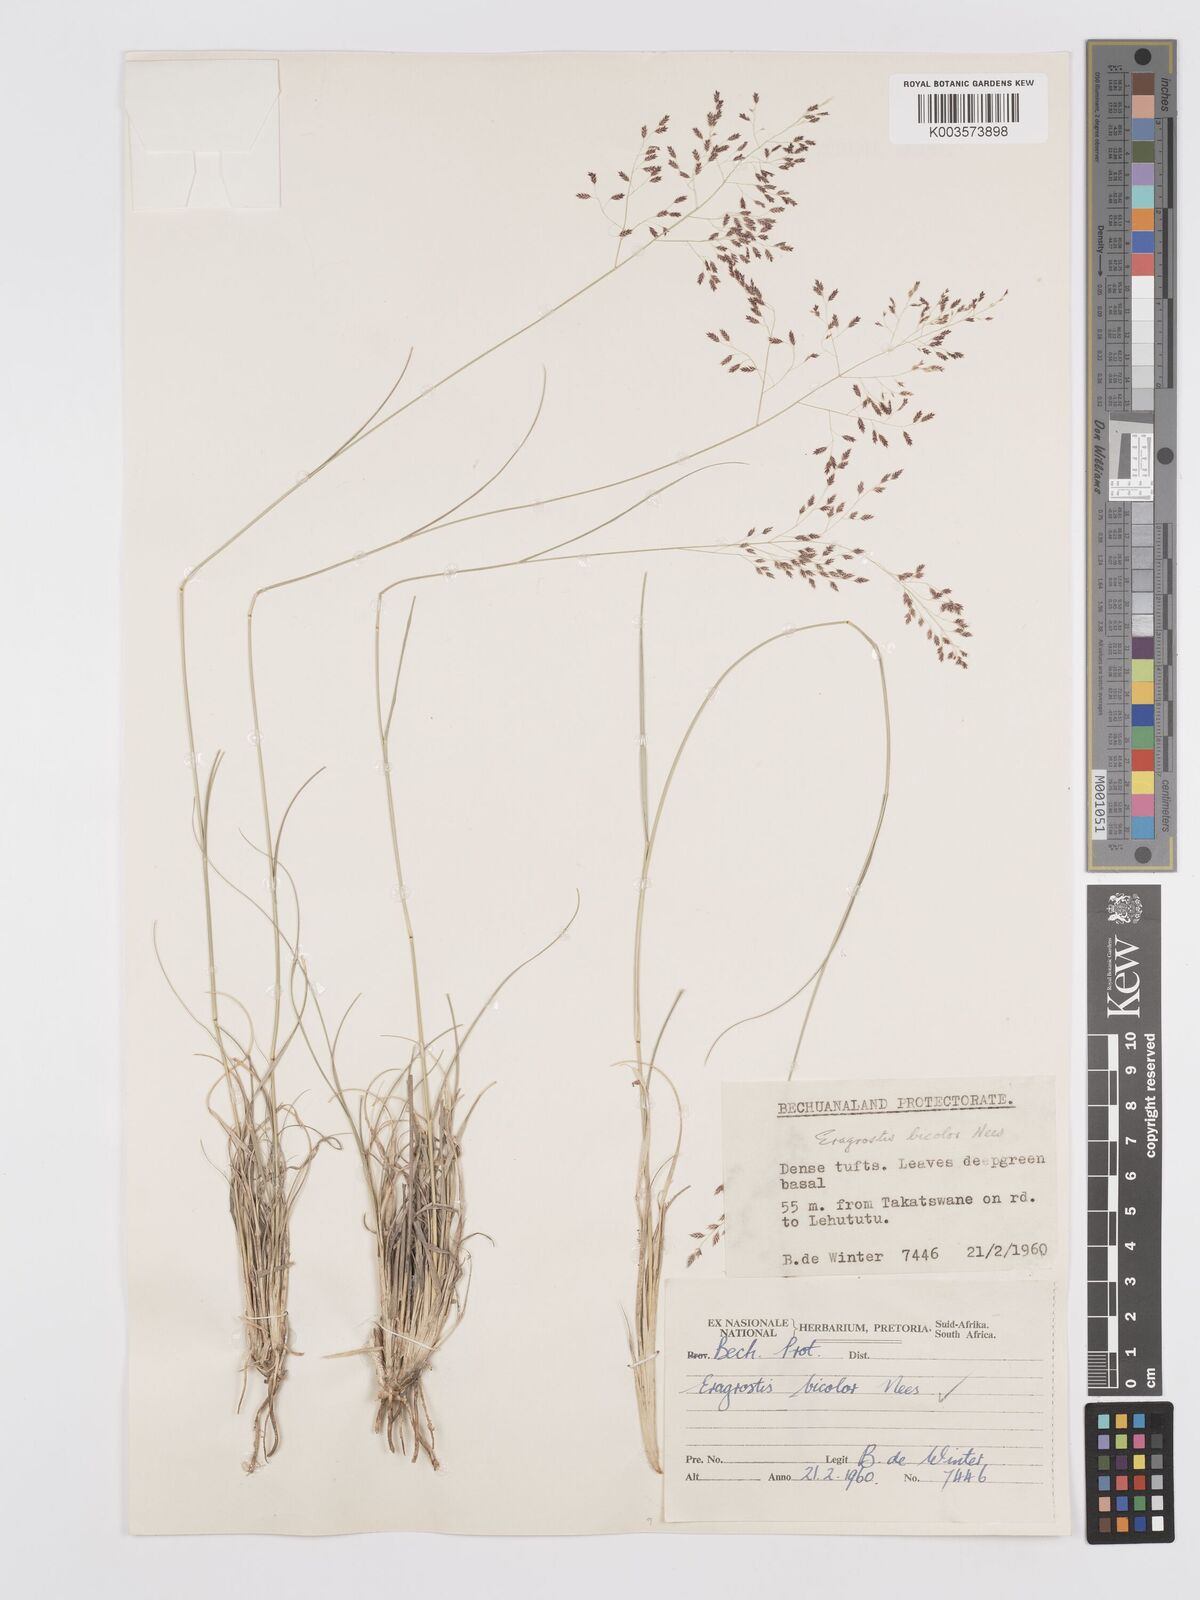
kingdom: Plantae
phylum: Tracheophyta
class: Liliopsida
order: Poales
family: Poaceae
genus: Eragrostis
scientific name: Eragrostis
